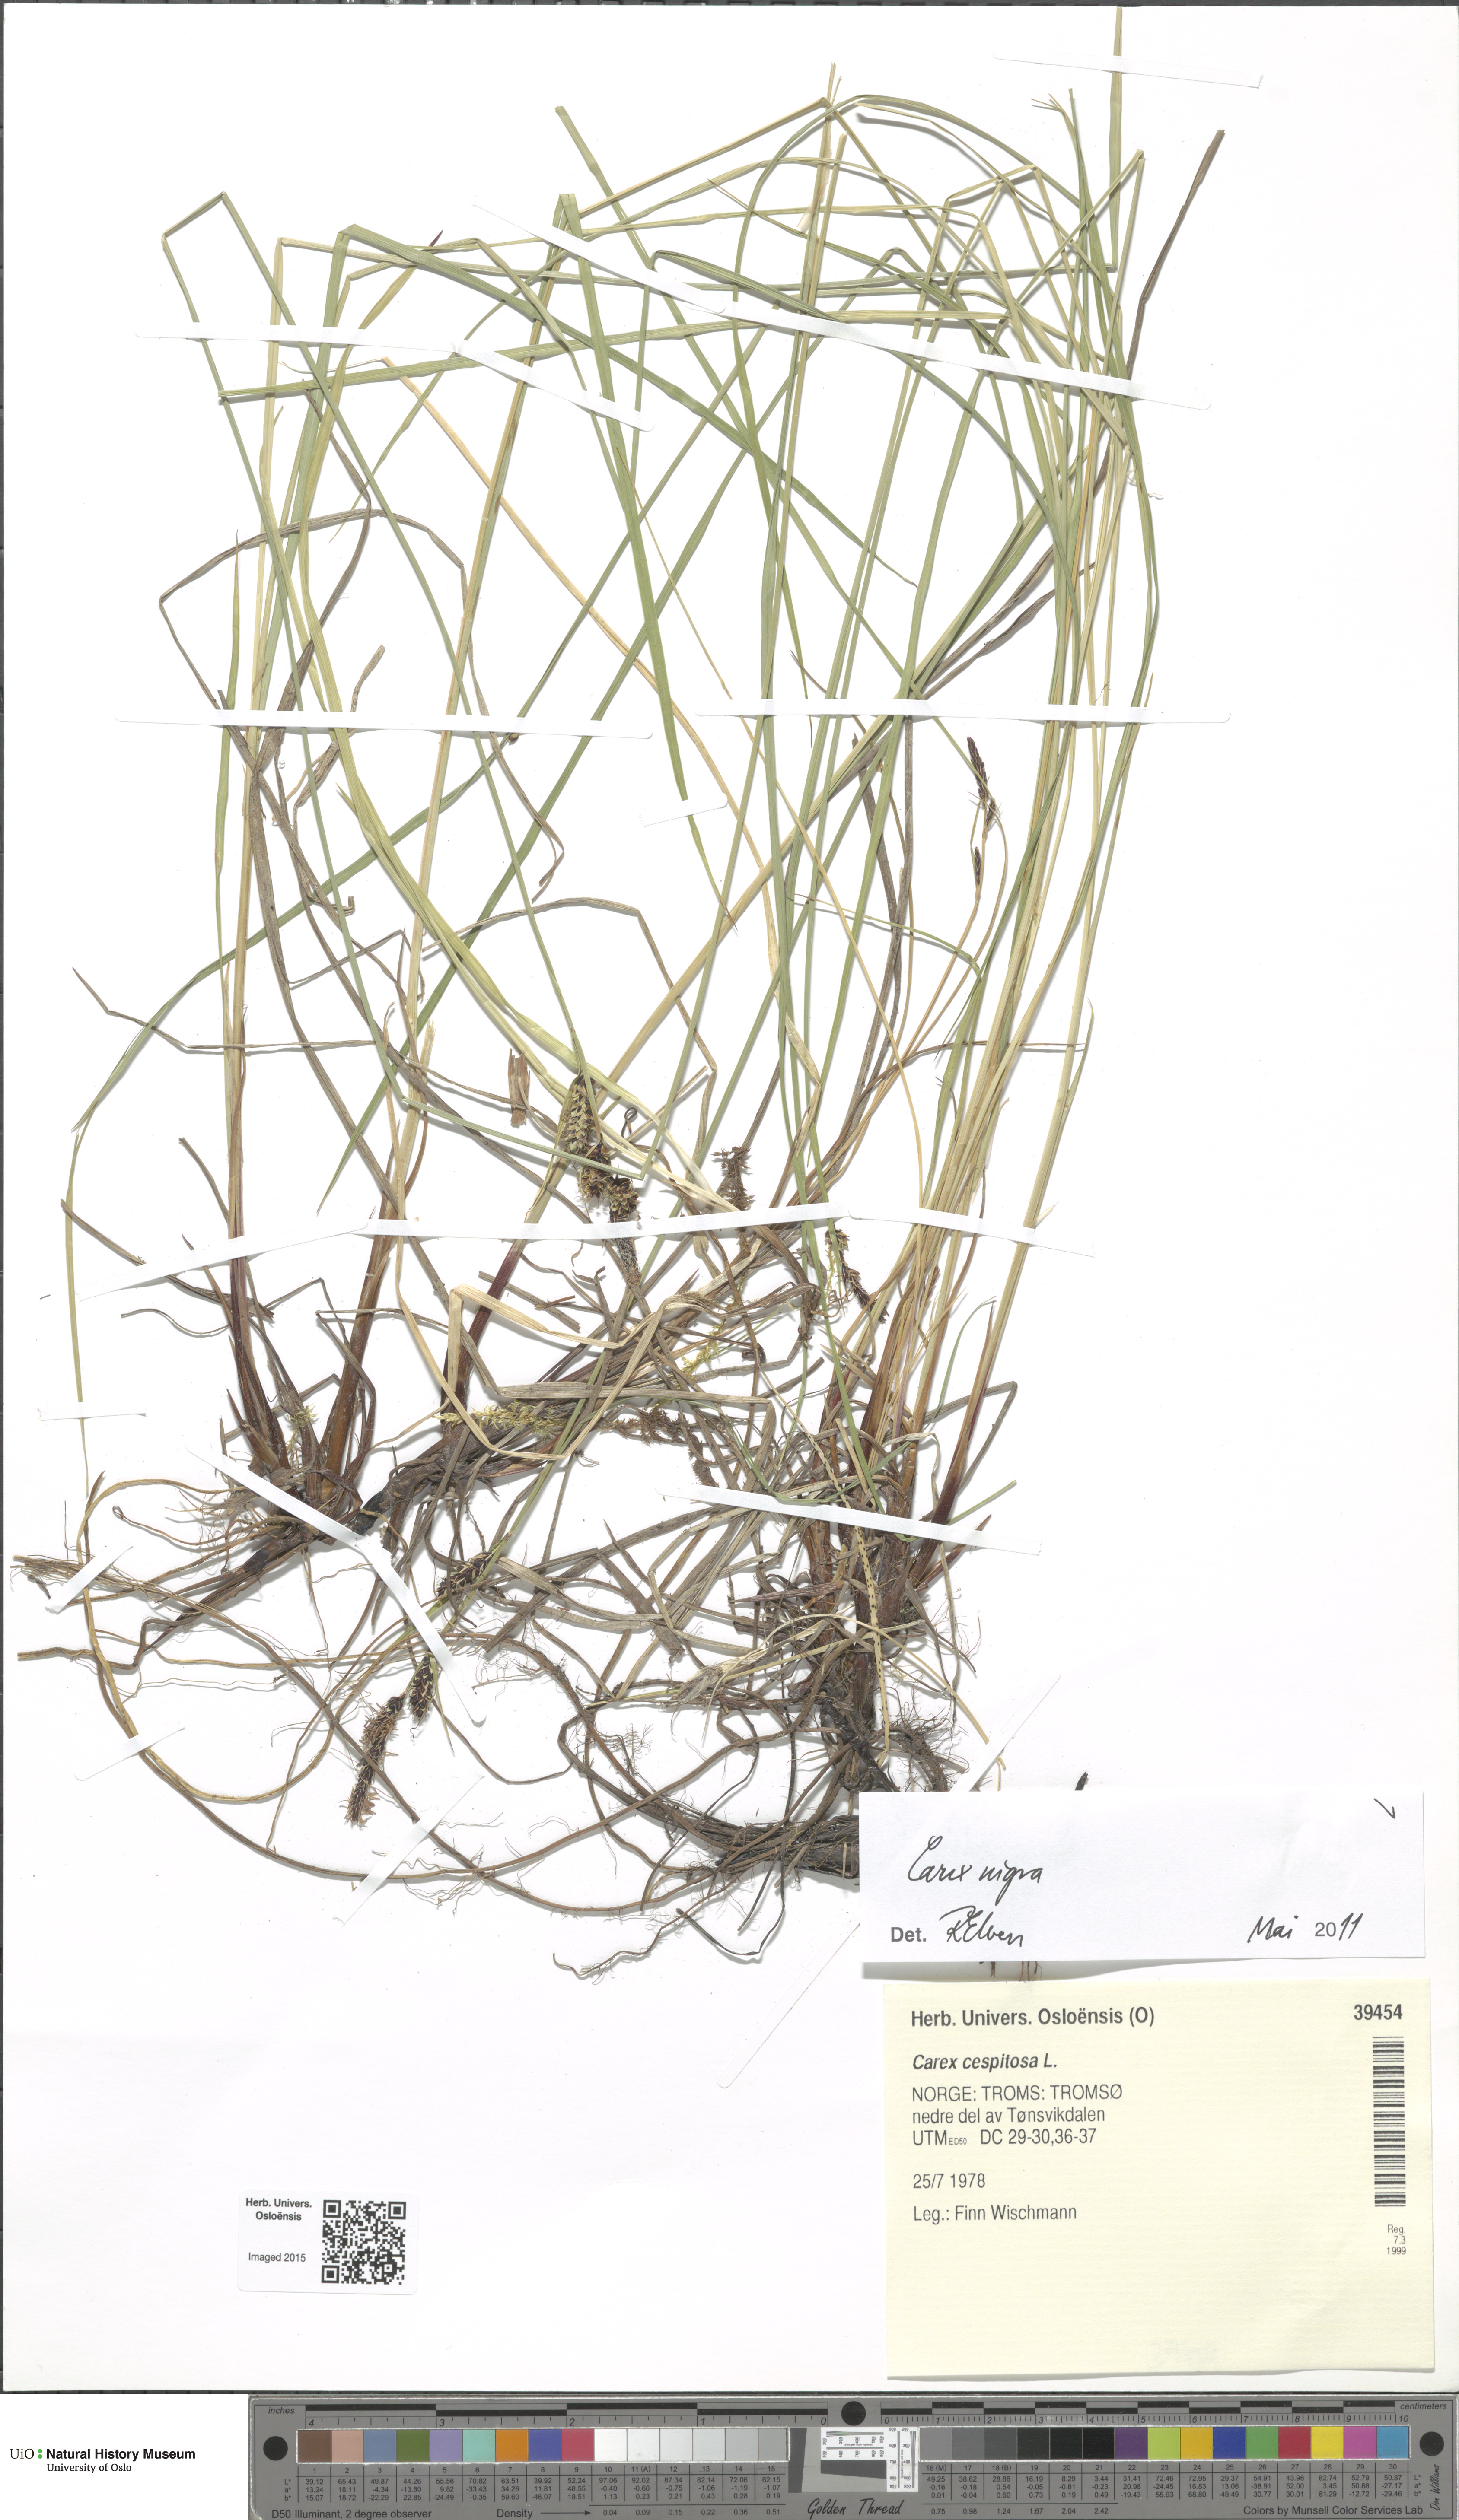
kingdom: Plantae
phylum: Tracheophyta
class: Liliopsida
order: Poales
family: Cyperaceae
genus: Carex
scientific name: Carex nigra
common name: Common sedge
